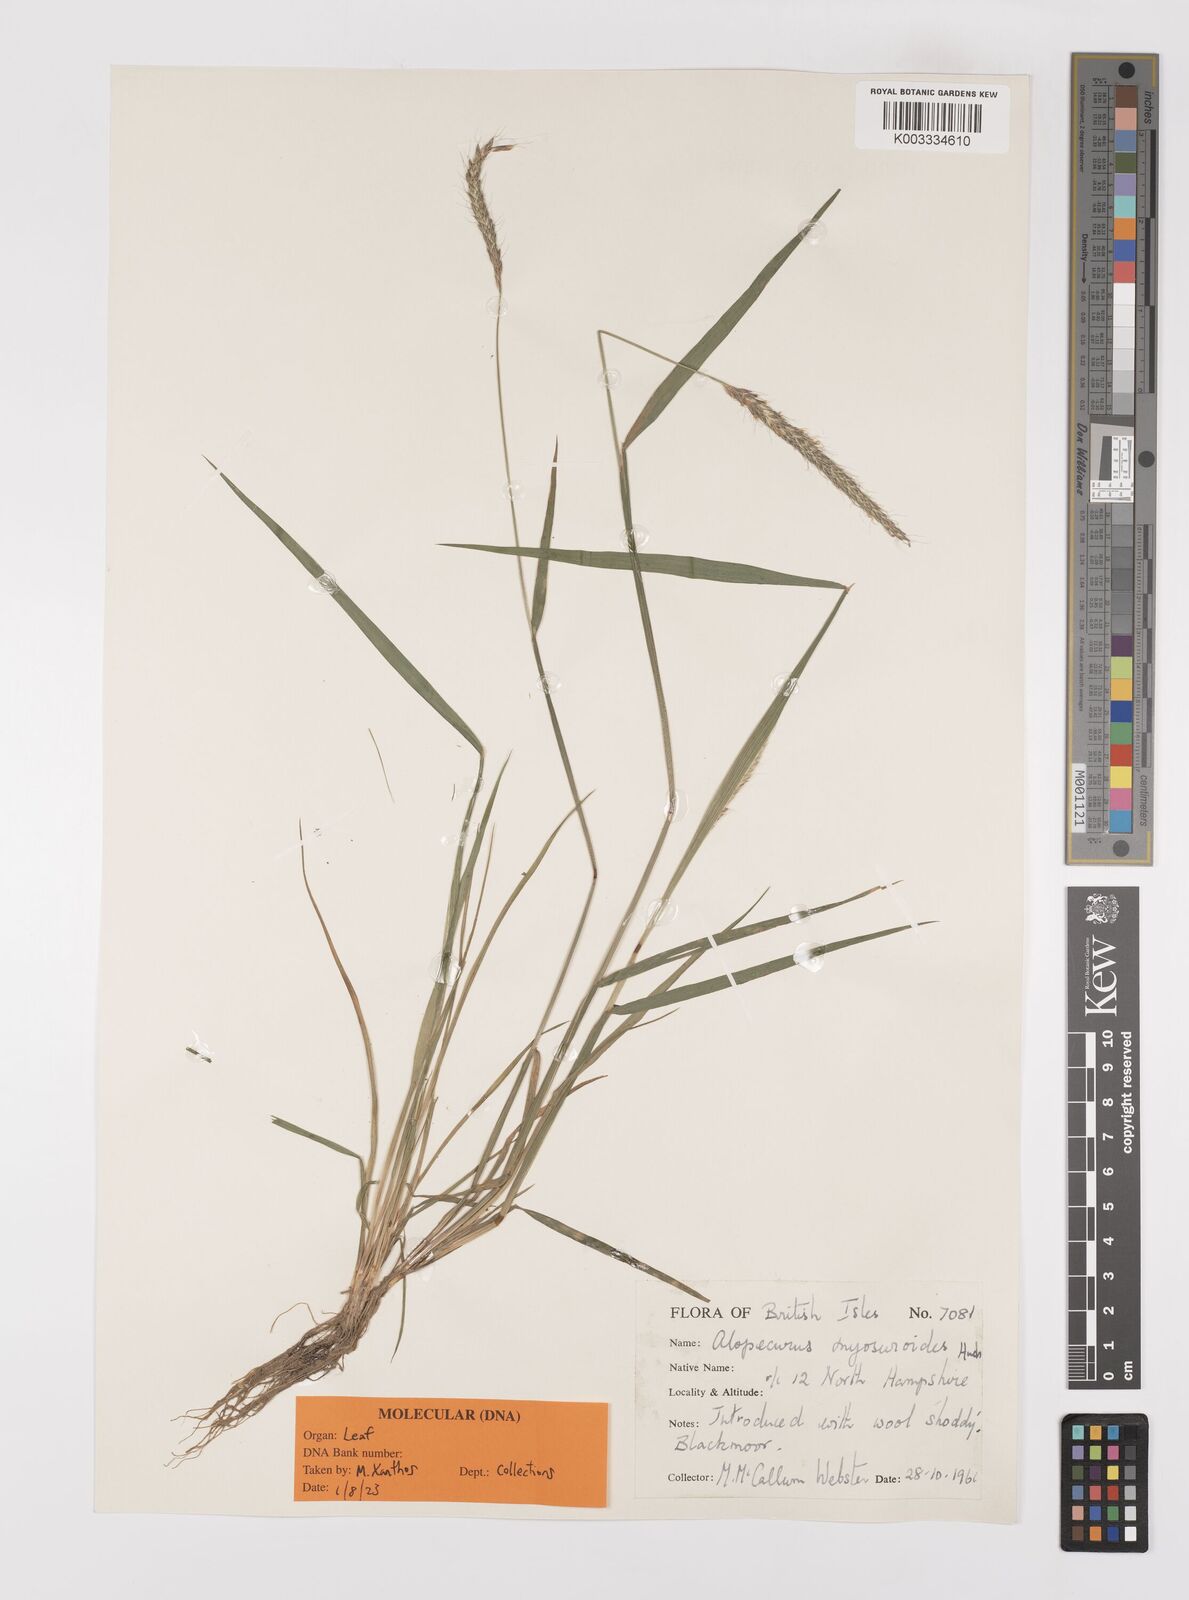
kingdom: Plantae
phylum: Tracheophyta
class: Liliopsida
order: Poales
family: Poaceae
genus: Alopecurus
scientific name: Alopecurus myosuroides
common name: Black-grass
